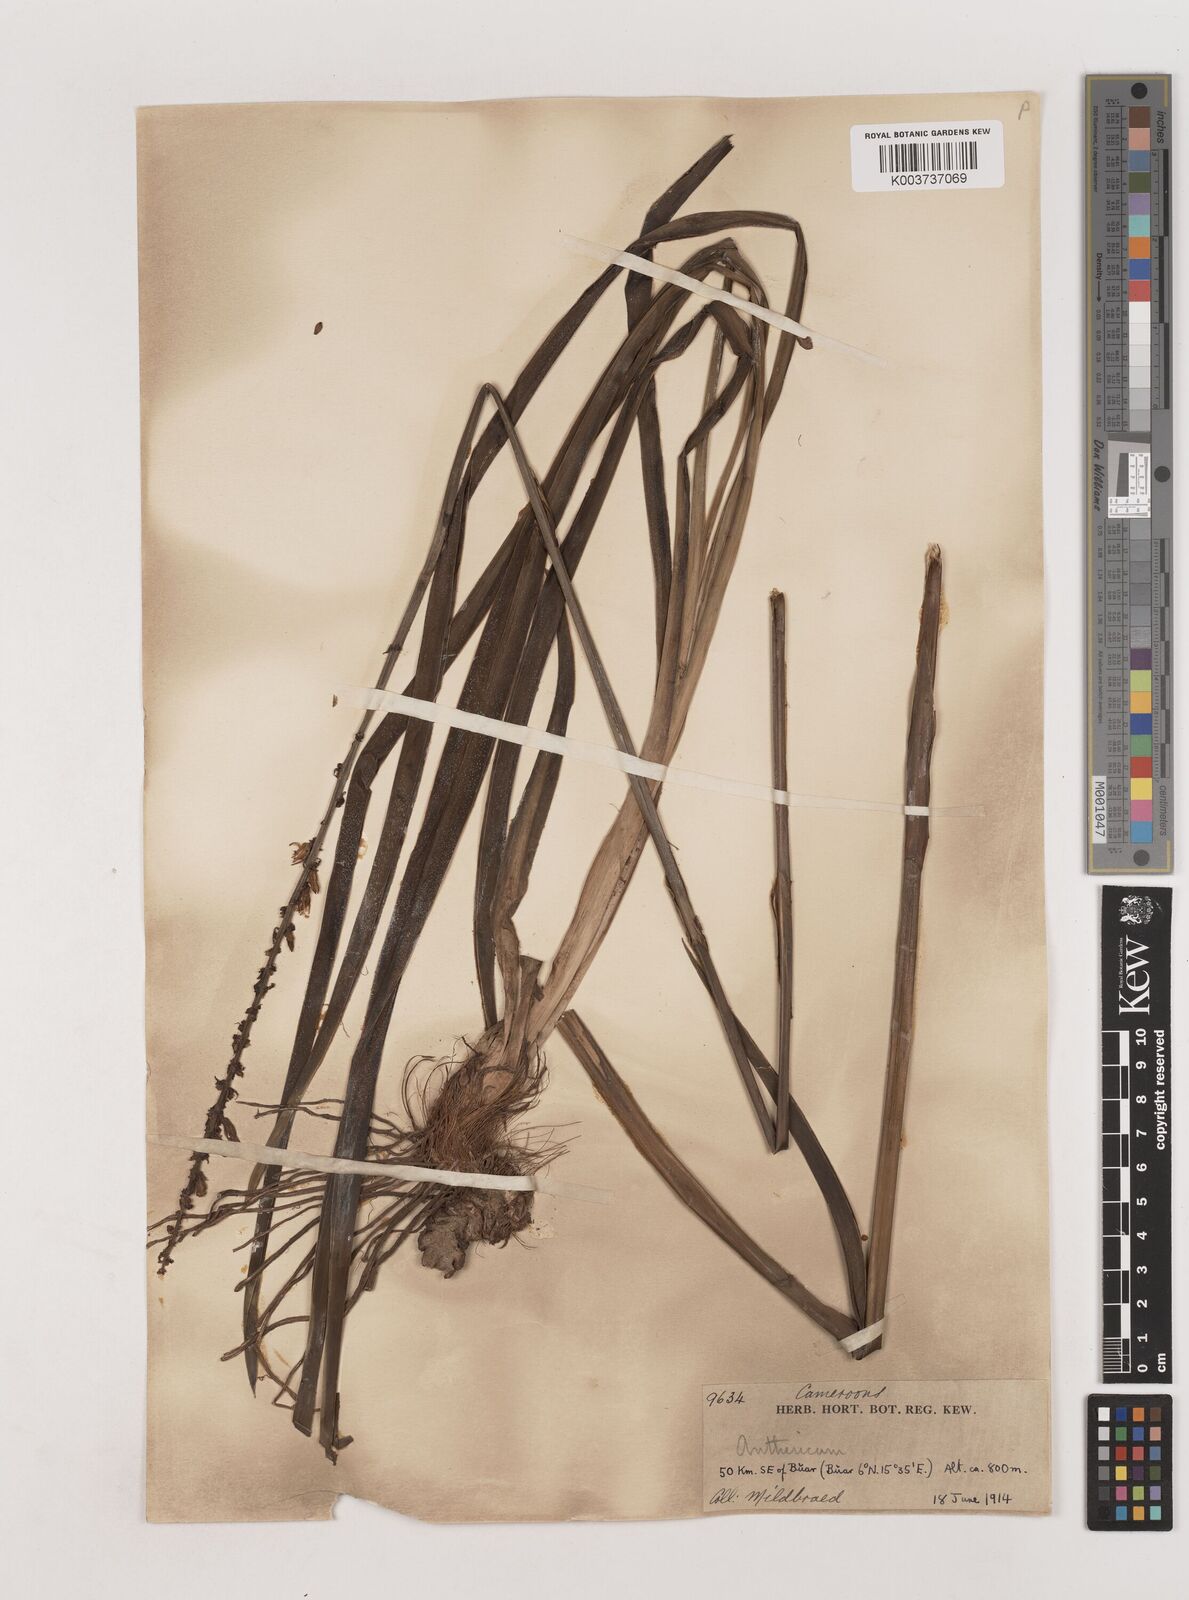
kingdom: Plantae
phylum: Tracheophyta
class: Liliopsida
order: Asparagales
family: Asparagaceae
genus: Chlorophytum
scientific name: Chlorophytum longifolium
